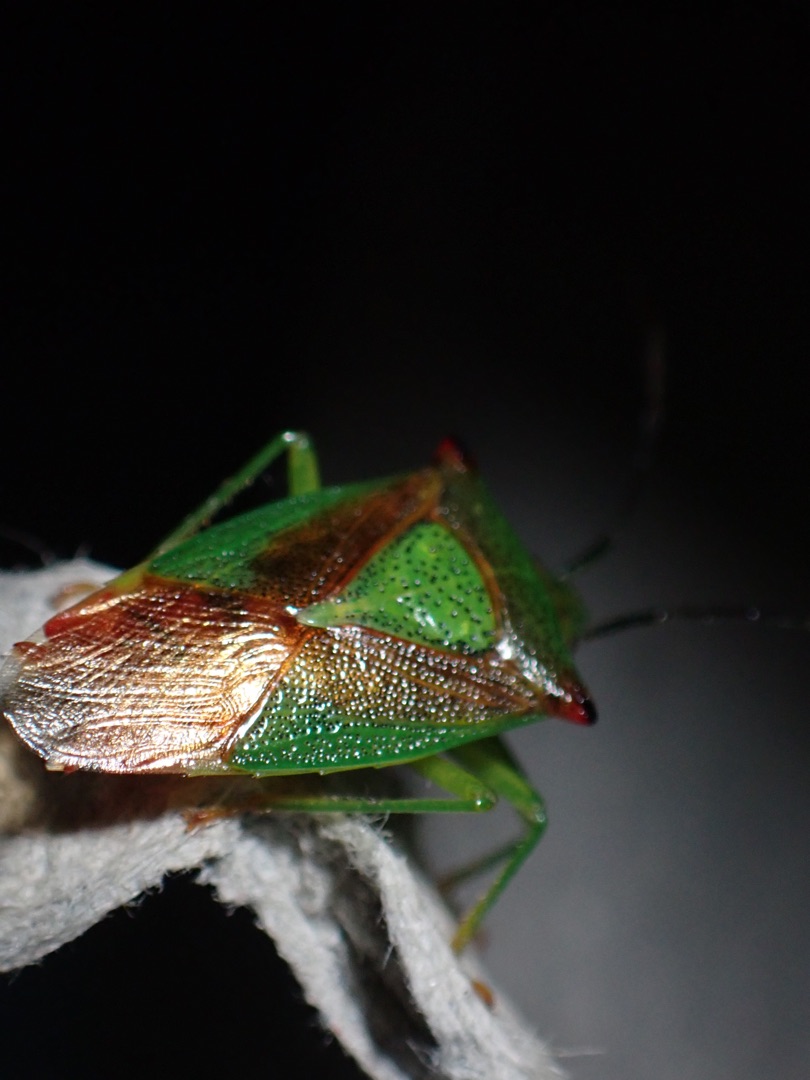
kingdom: Animalia
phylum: Arthropoda
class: Insecta
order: Hemiptera
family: Acanthosomatidae
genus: Acanthosoma
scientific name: Acanthosoma haemorrhoidale
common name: Stor løvtæge
